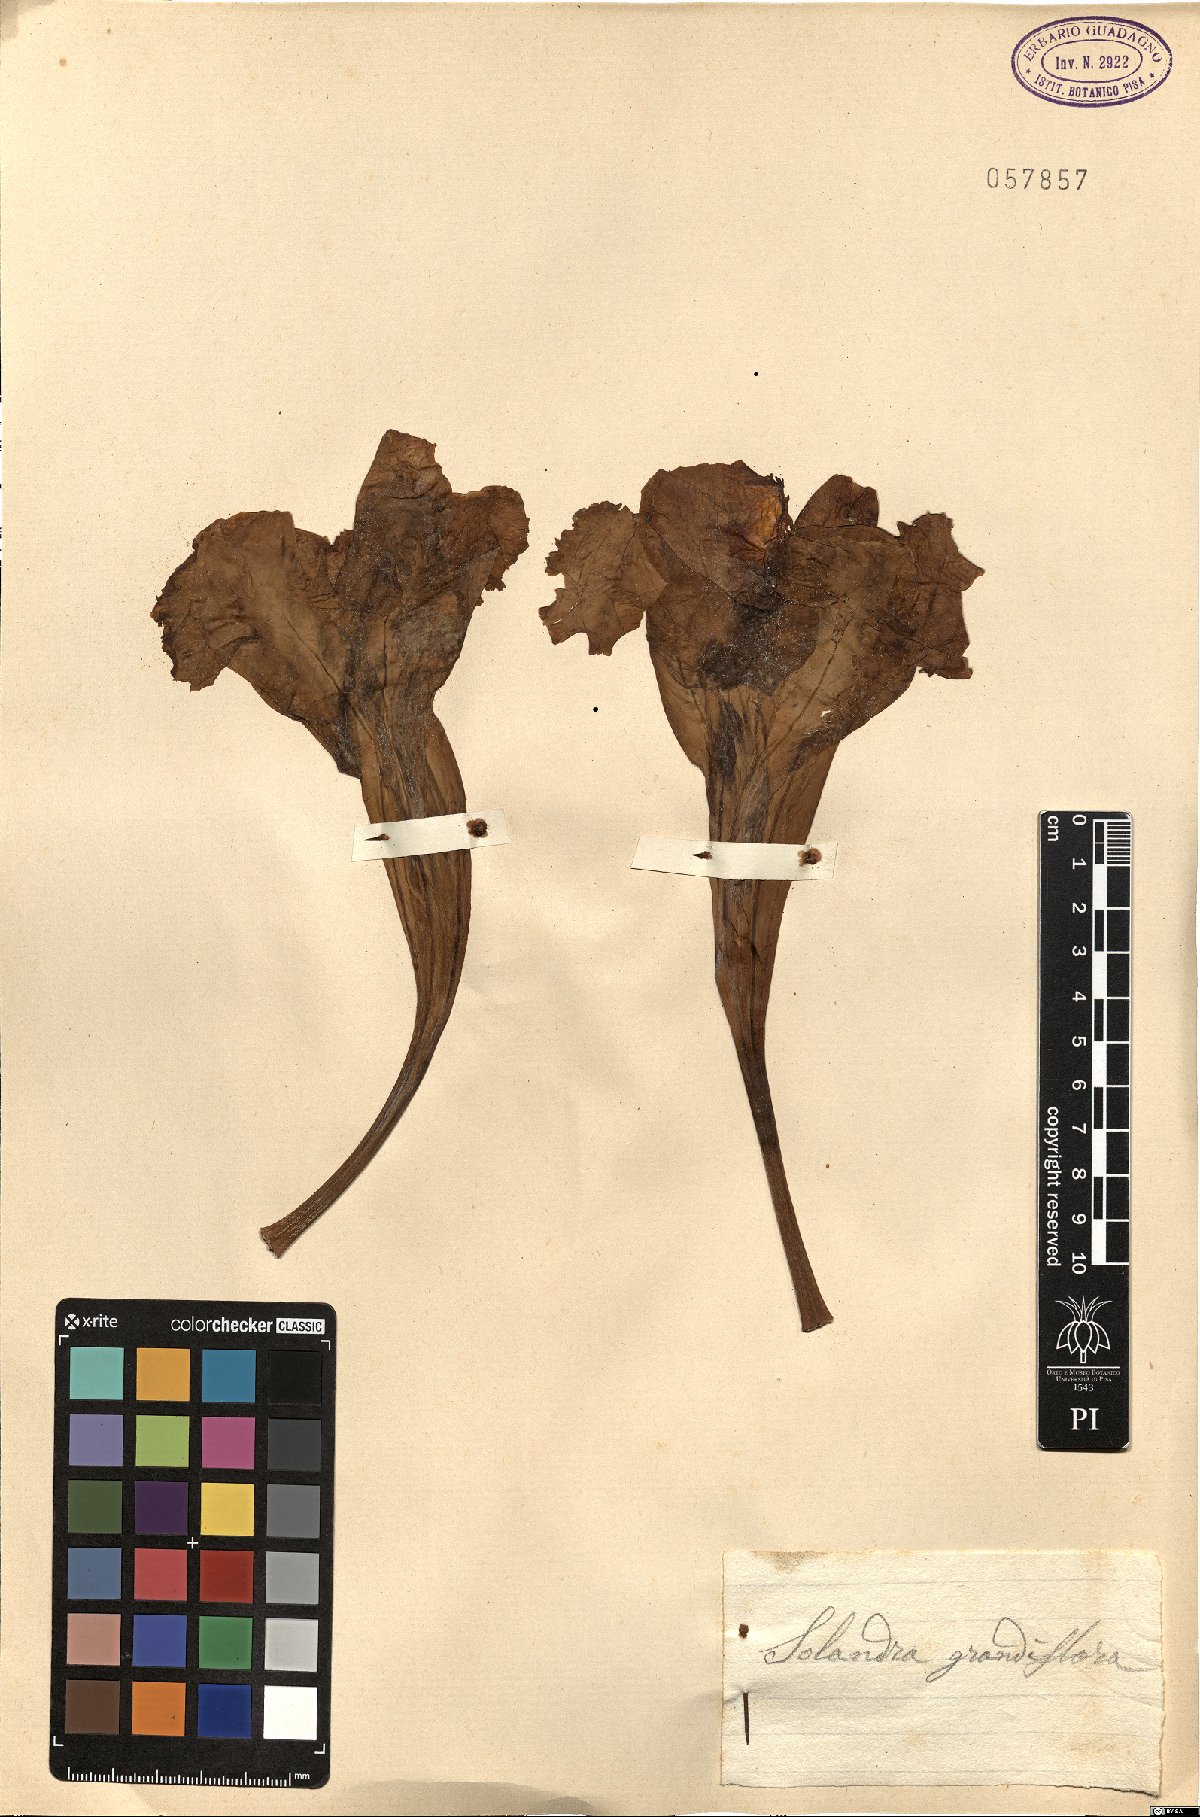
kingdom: Plantae
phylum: Tracheophyta
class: Magnoliopsida
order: Solanales
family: Solanaceae
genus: Solandra
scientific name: Solandra grandiflora
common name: Showy chalicevine
